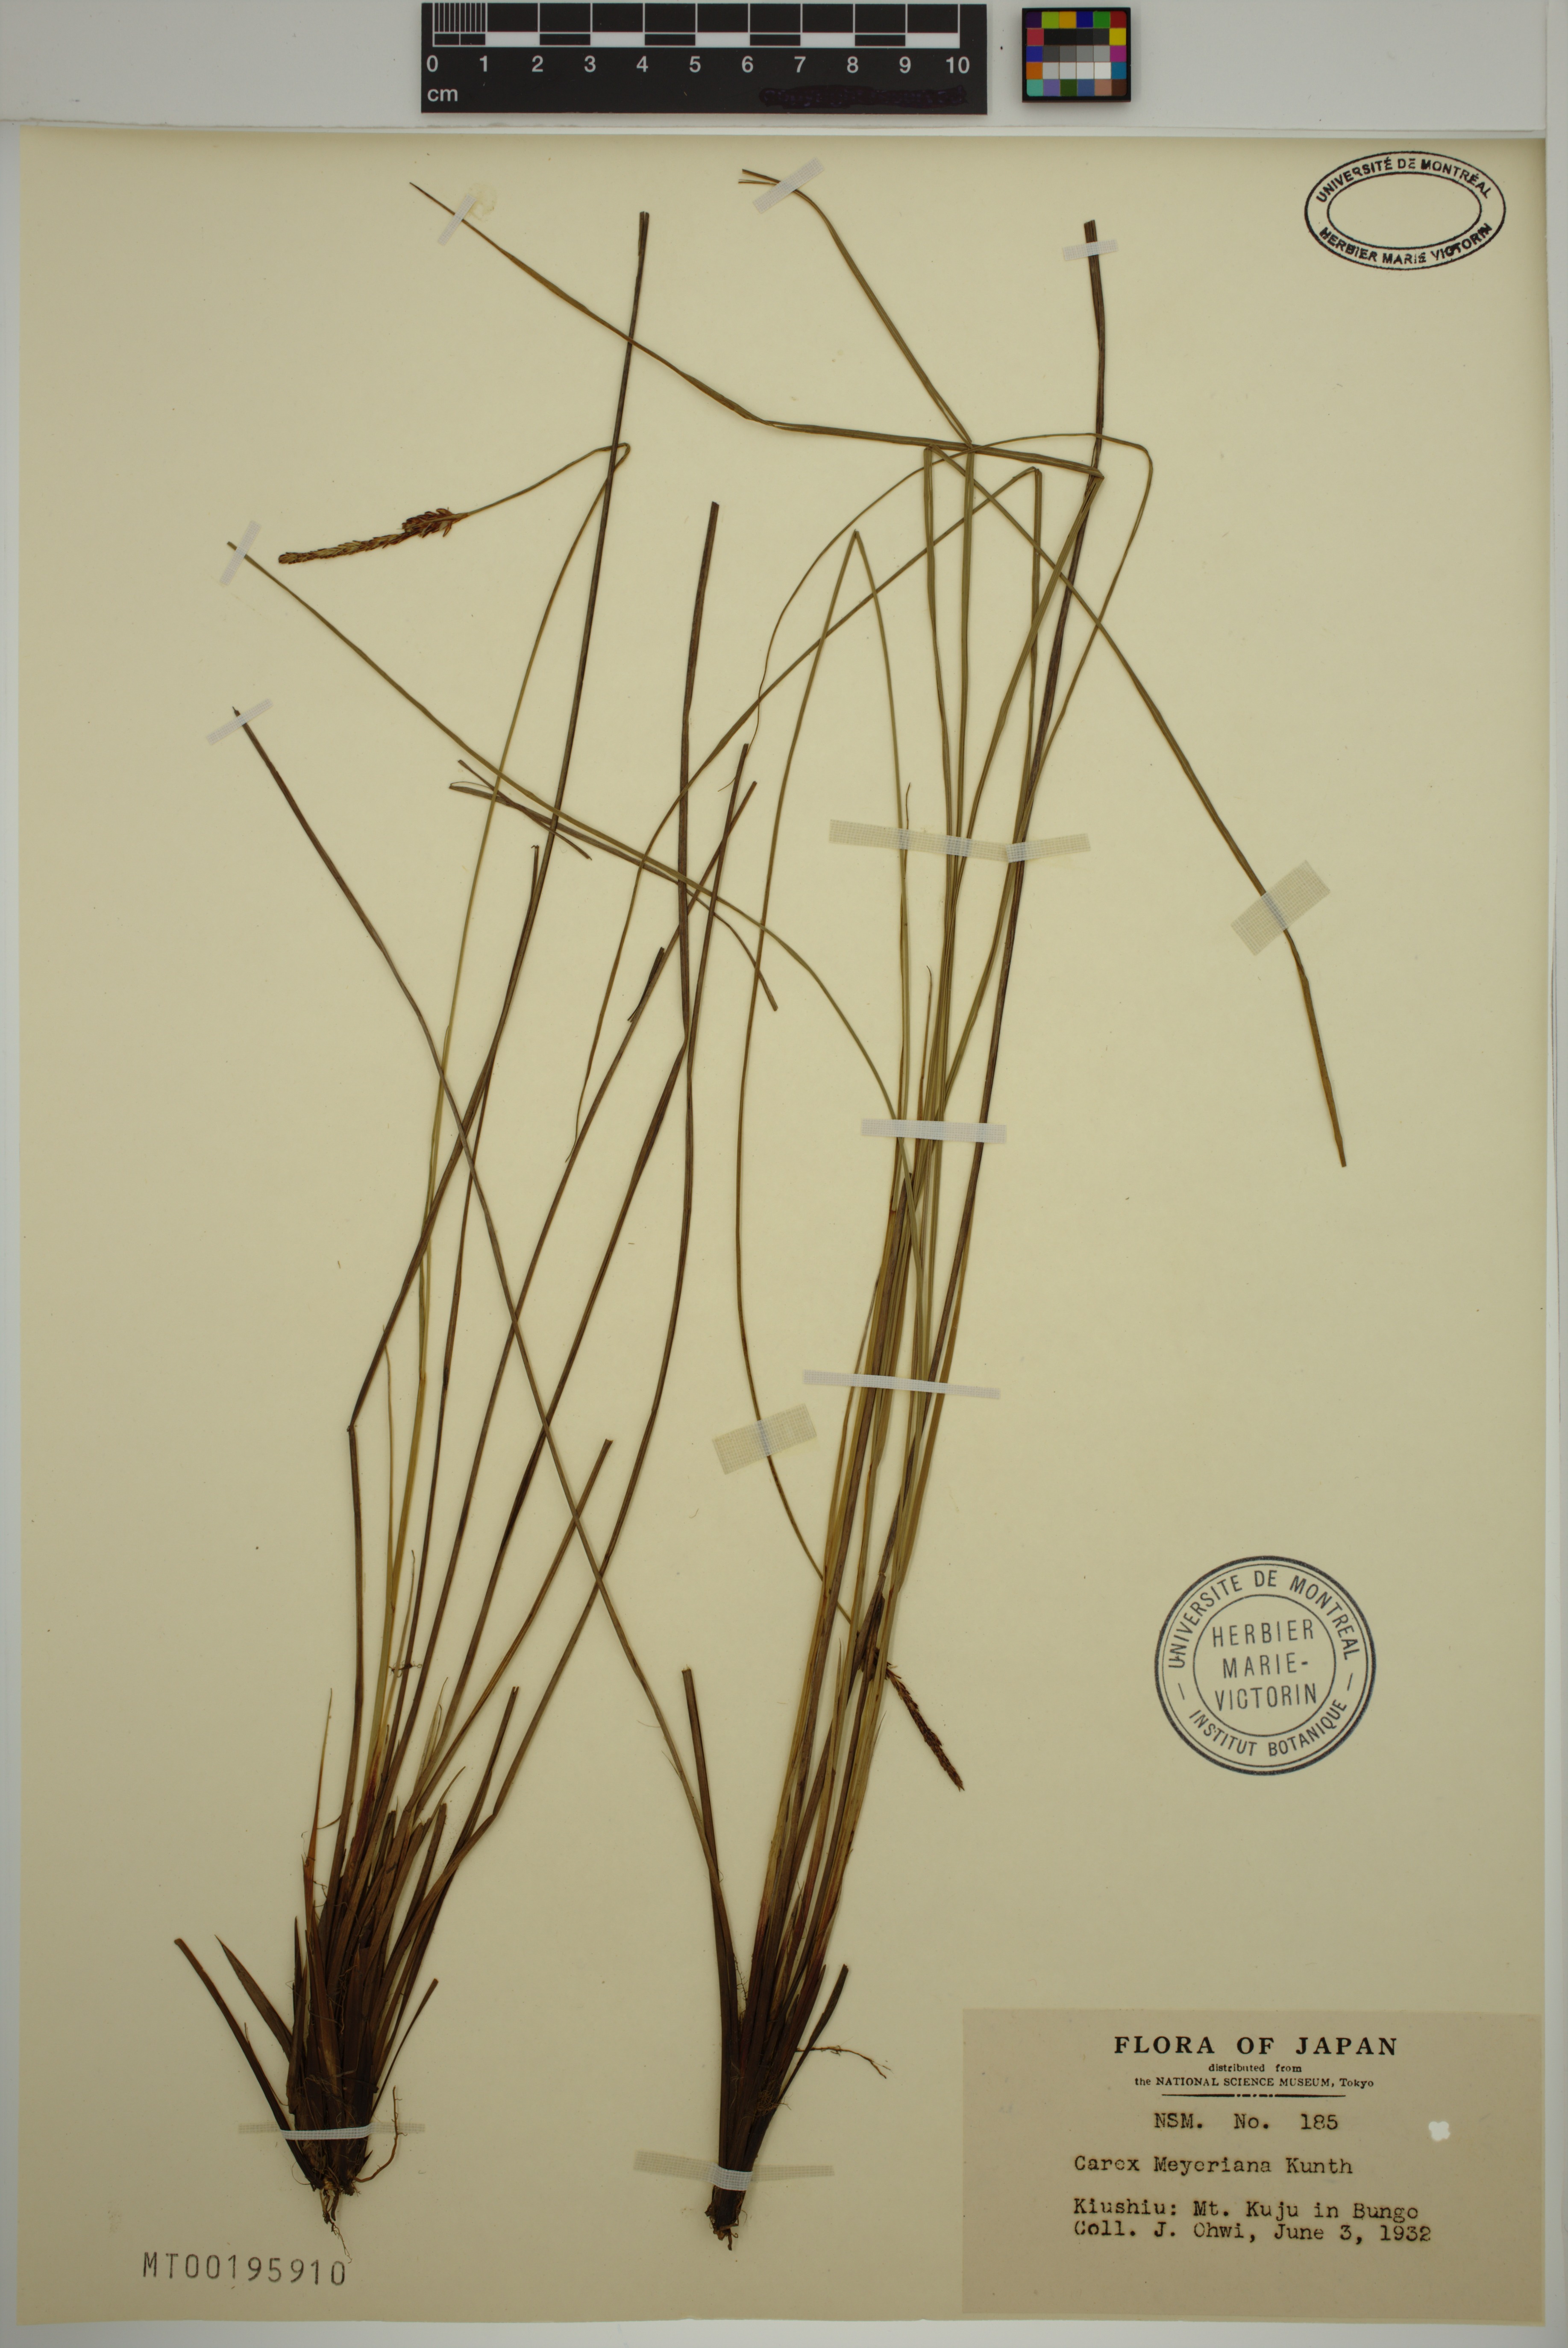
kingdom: Plantae
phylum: Tracheophyta
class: Liliopsida
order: Poales
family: Cyperaceae
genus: Carex
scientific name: Carex meyeriana
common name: Wula sedge
